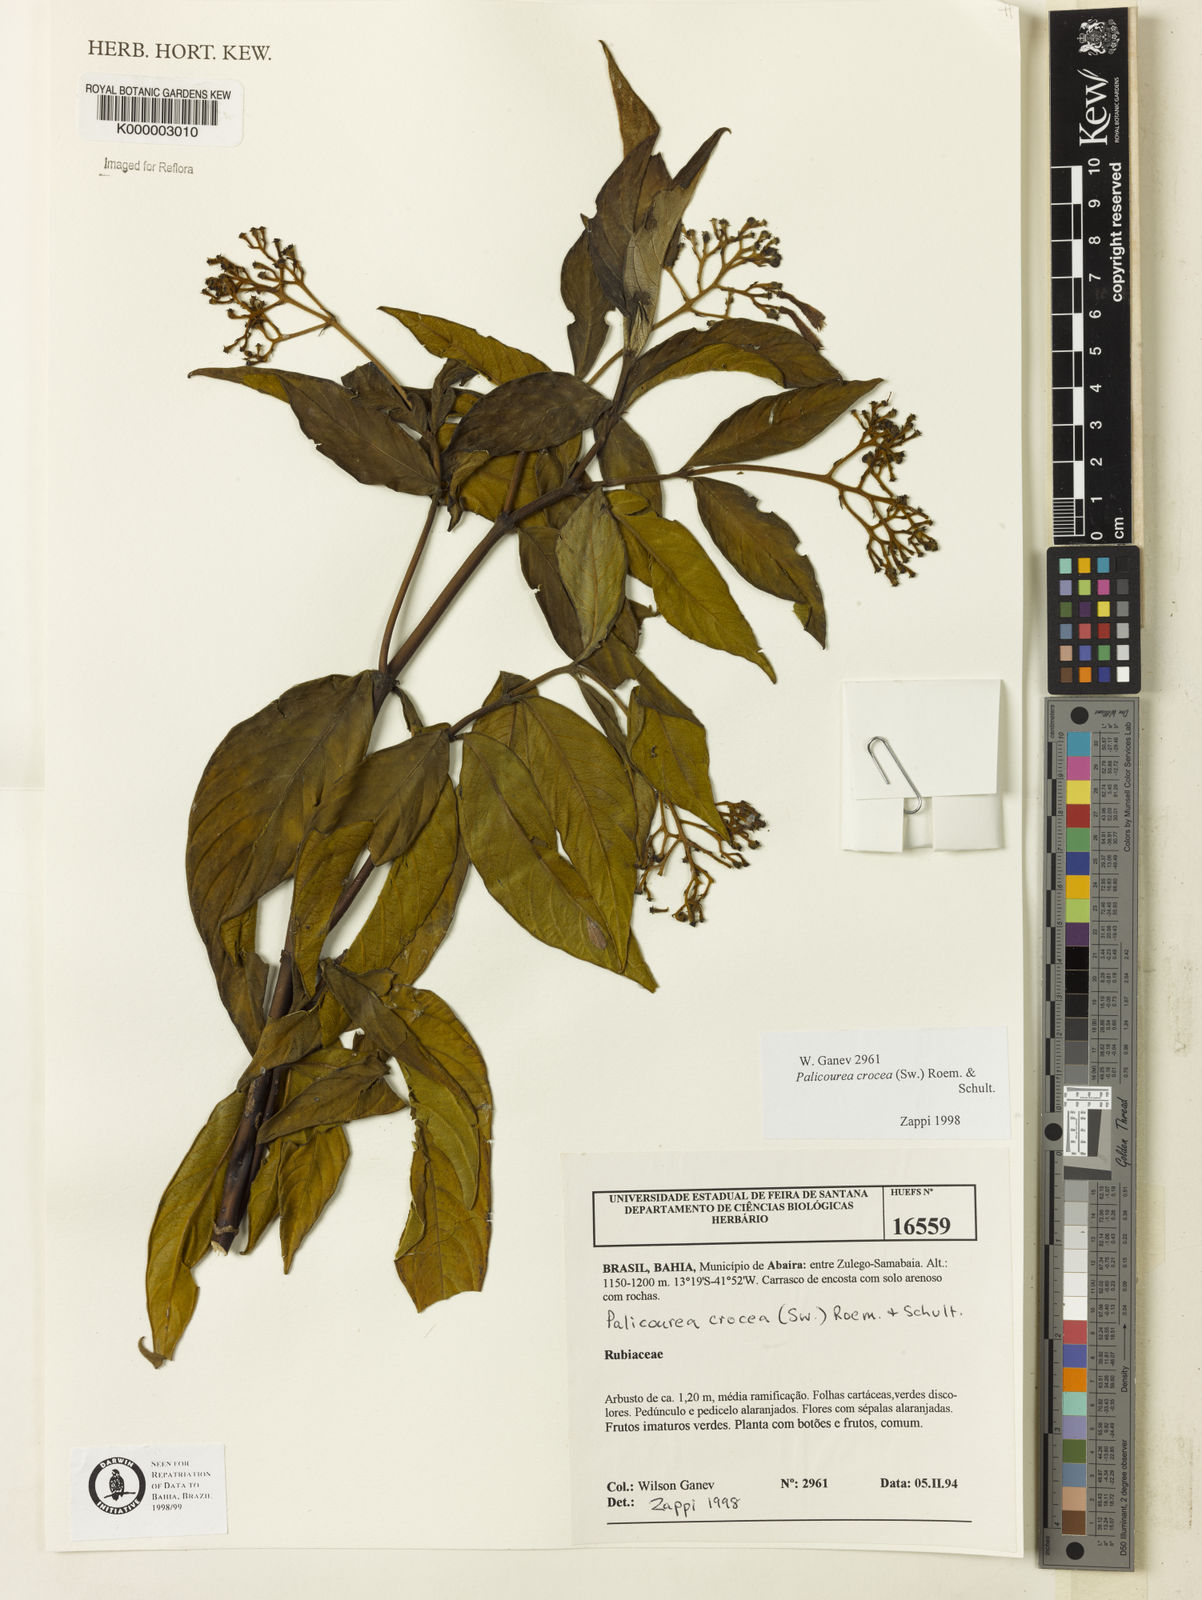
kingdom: Plantae
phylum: Tracheophyta
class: Magnoliopsida
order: Gentianales
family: Rubiaceae
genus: Palicourea
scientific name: Palicourea marcgravii
